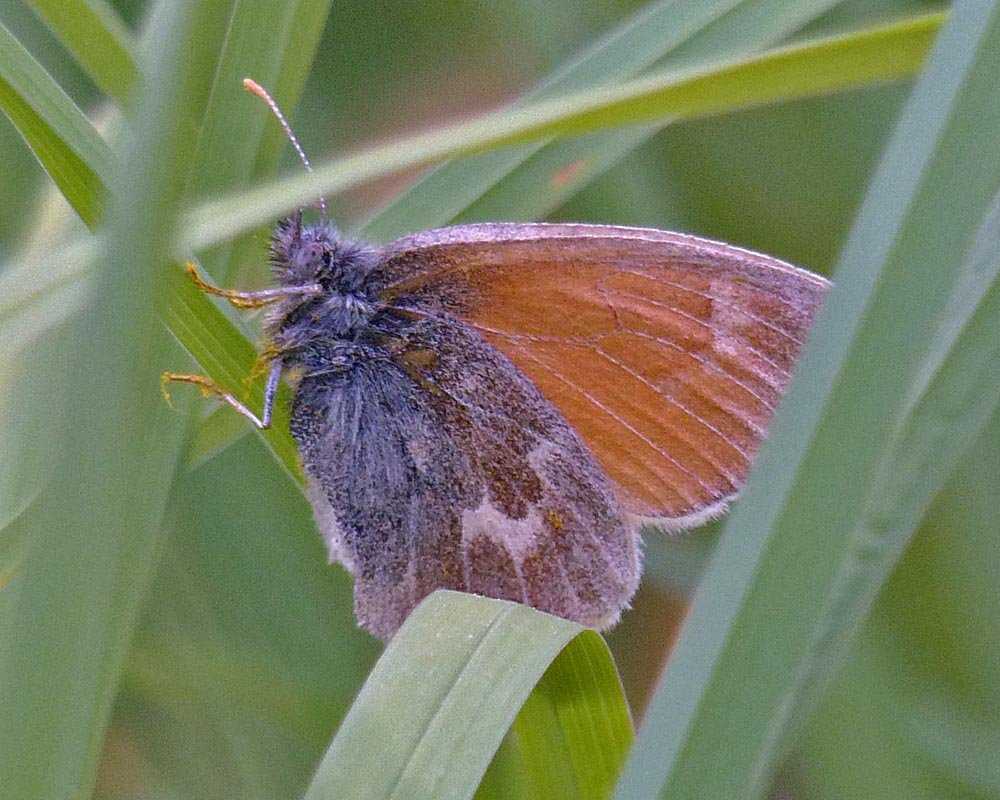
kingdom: Animalia
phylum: Arthropoda
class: Insecta
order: Lepidoptera
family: Nymphalidae
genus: Coenonympha
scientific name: Coenonympha tullia
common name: Large Heath
